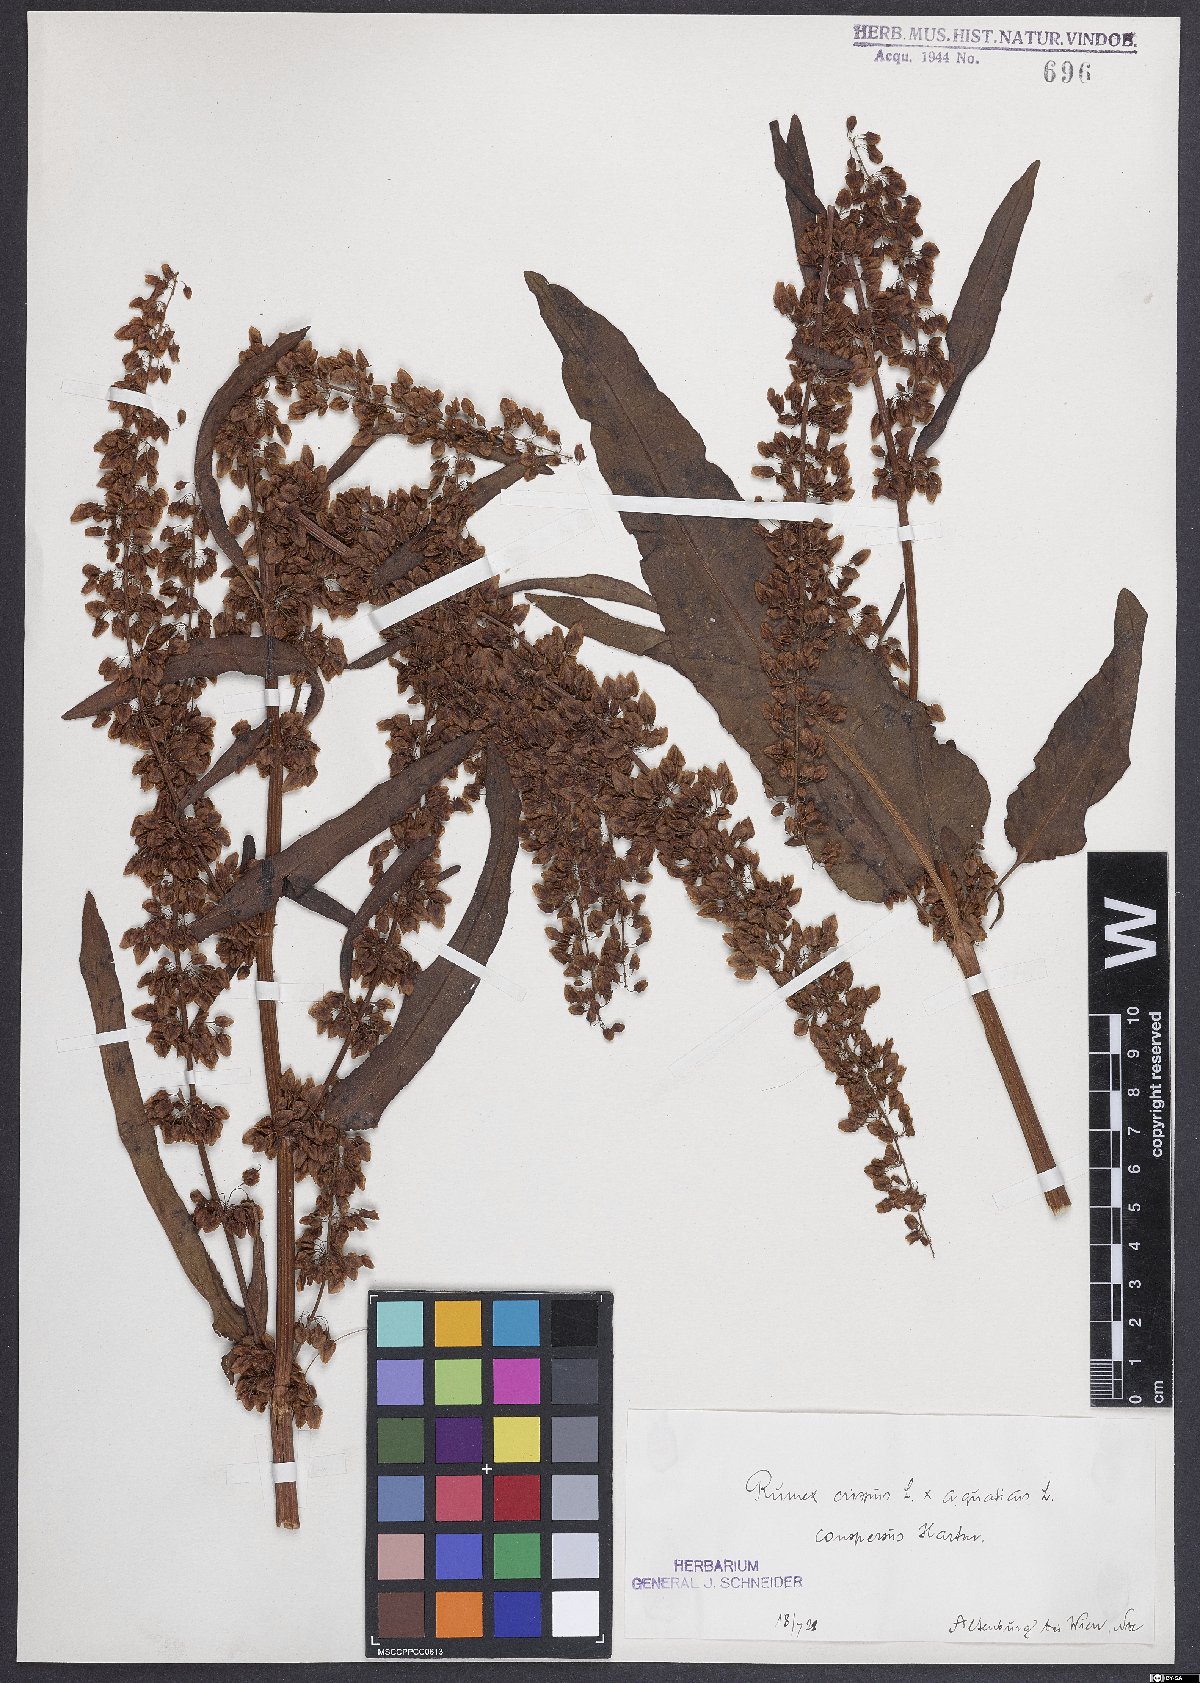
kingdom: Plantae
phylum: Tracheophyta
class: Magnoliopsida
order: Caryophyllales
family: Polygonaceae
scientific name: Polygonaceae
